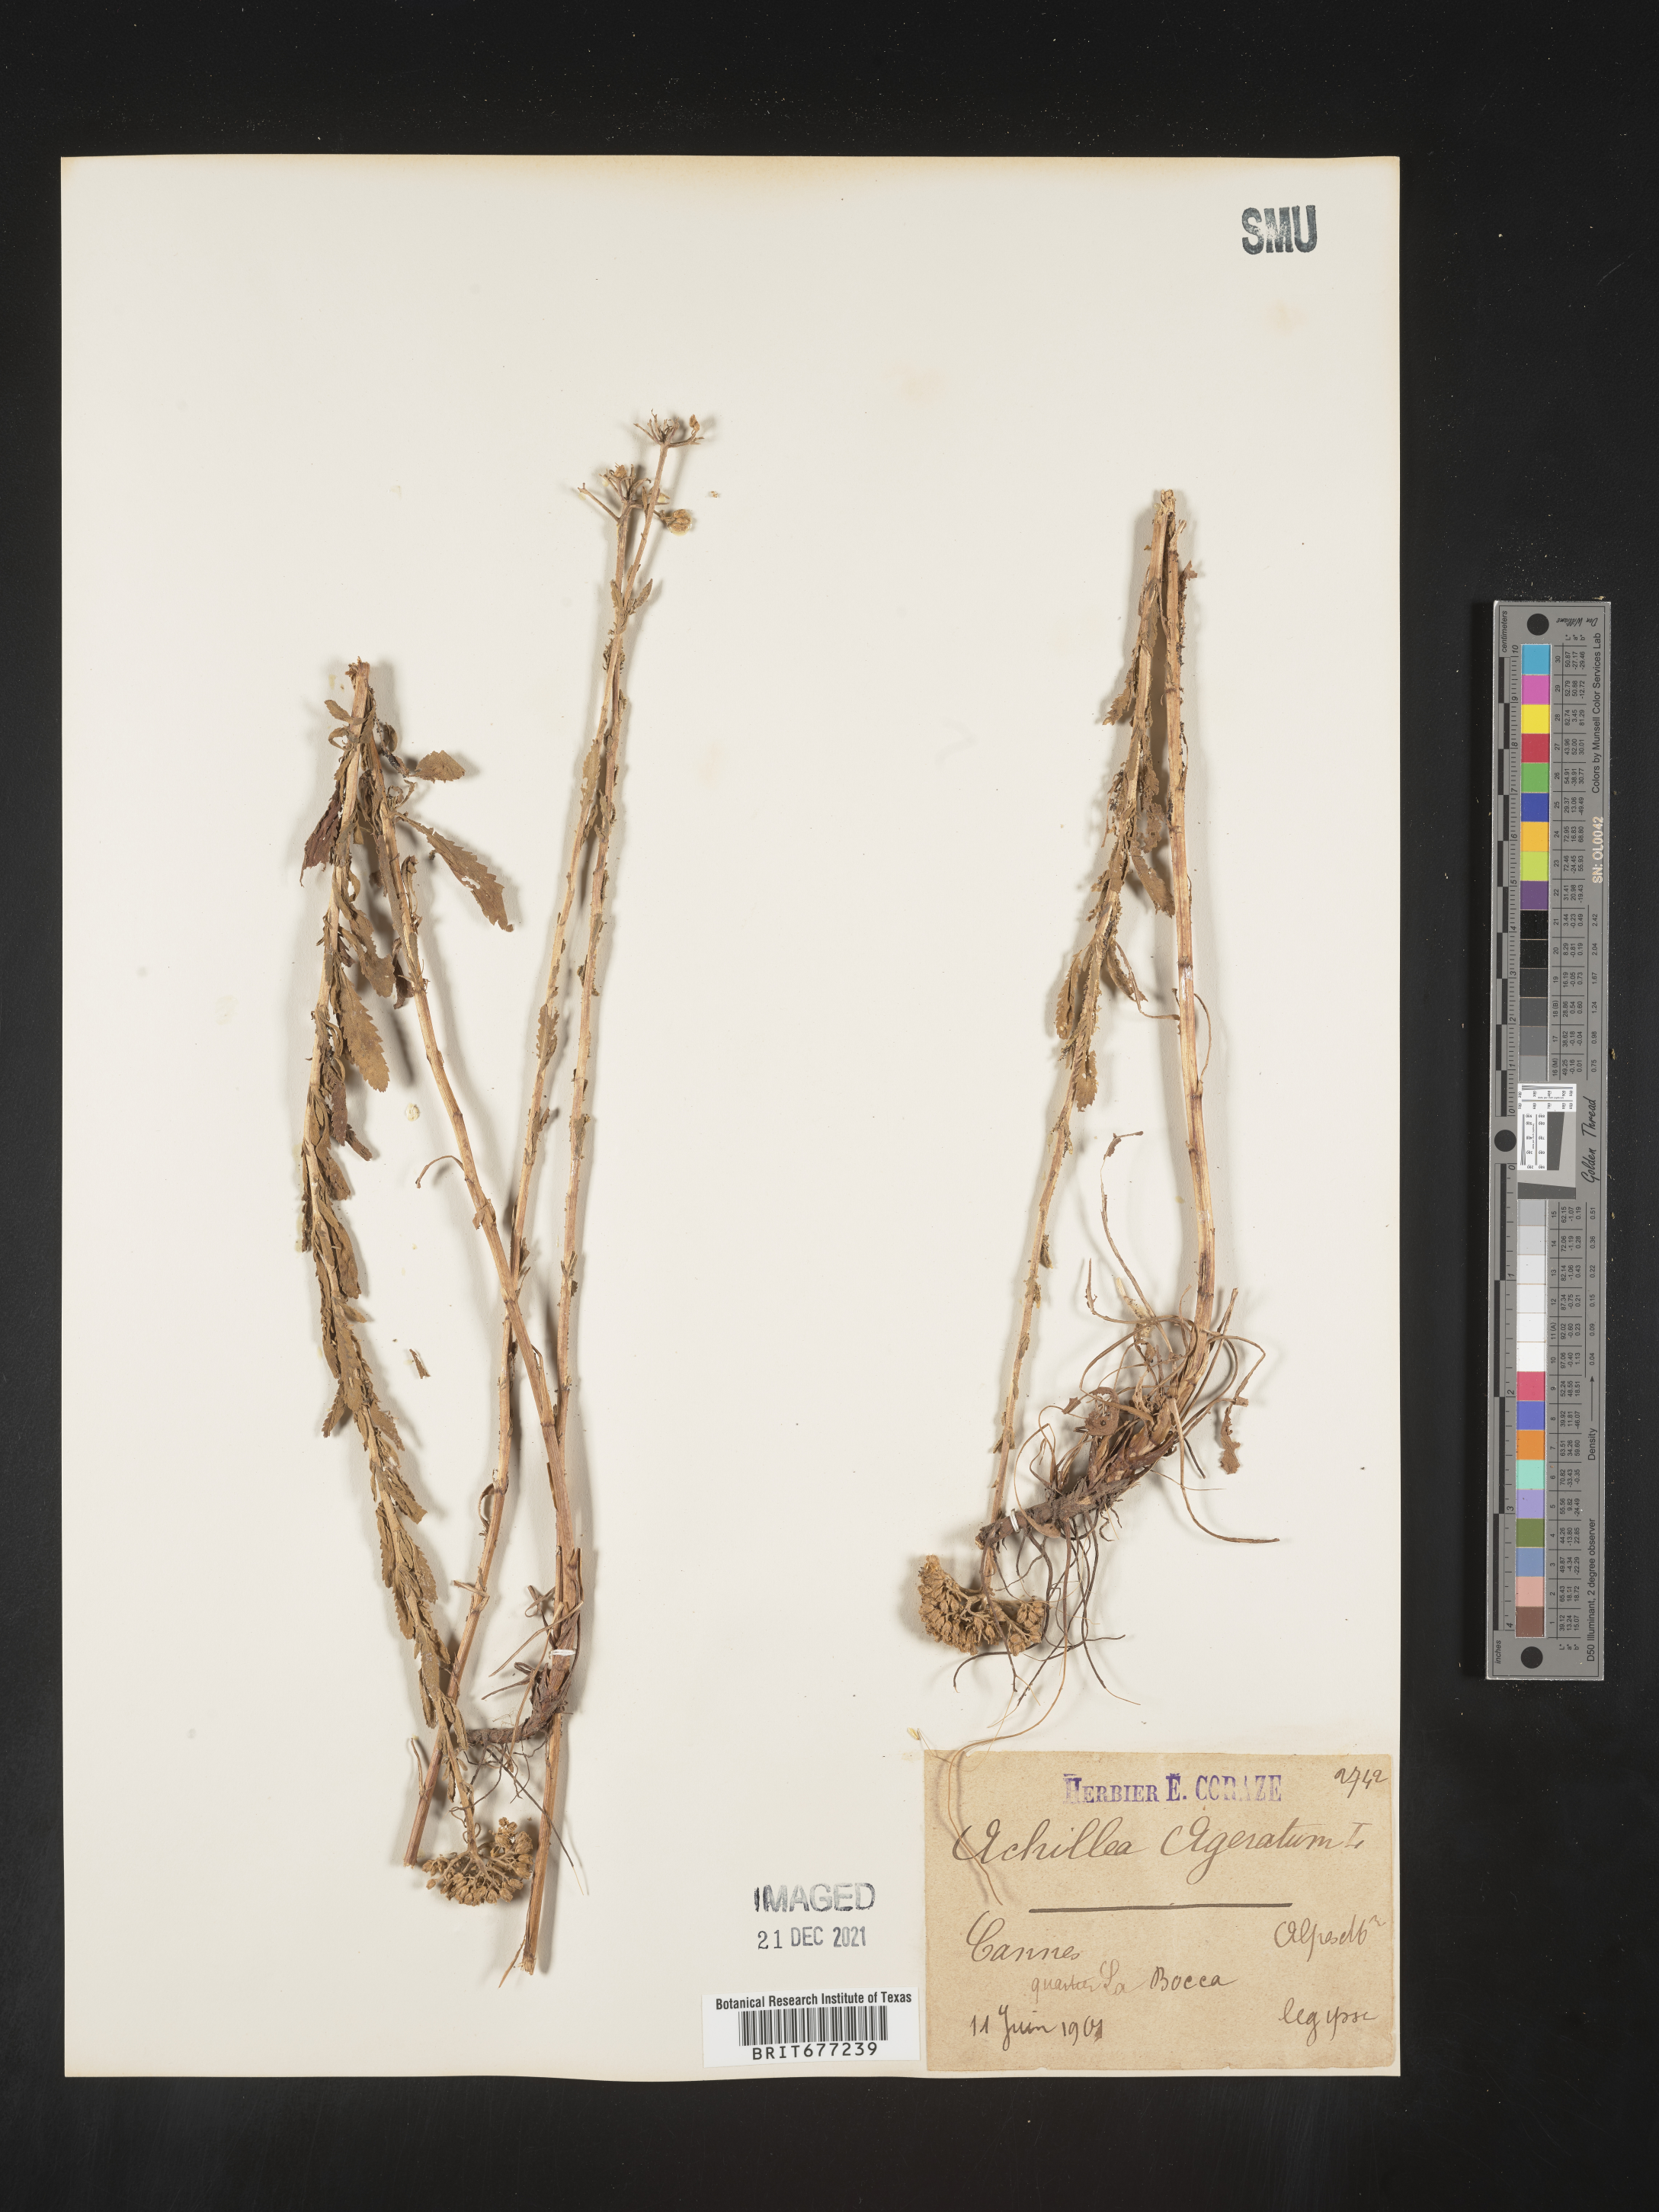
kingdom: Plantae
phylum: Tracheophyta
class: Magnoliopsida
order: Asterales
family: Asteraceae
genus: Achillea
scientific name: Achillea
